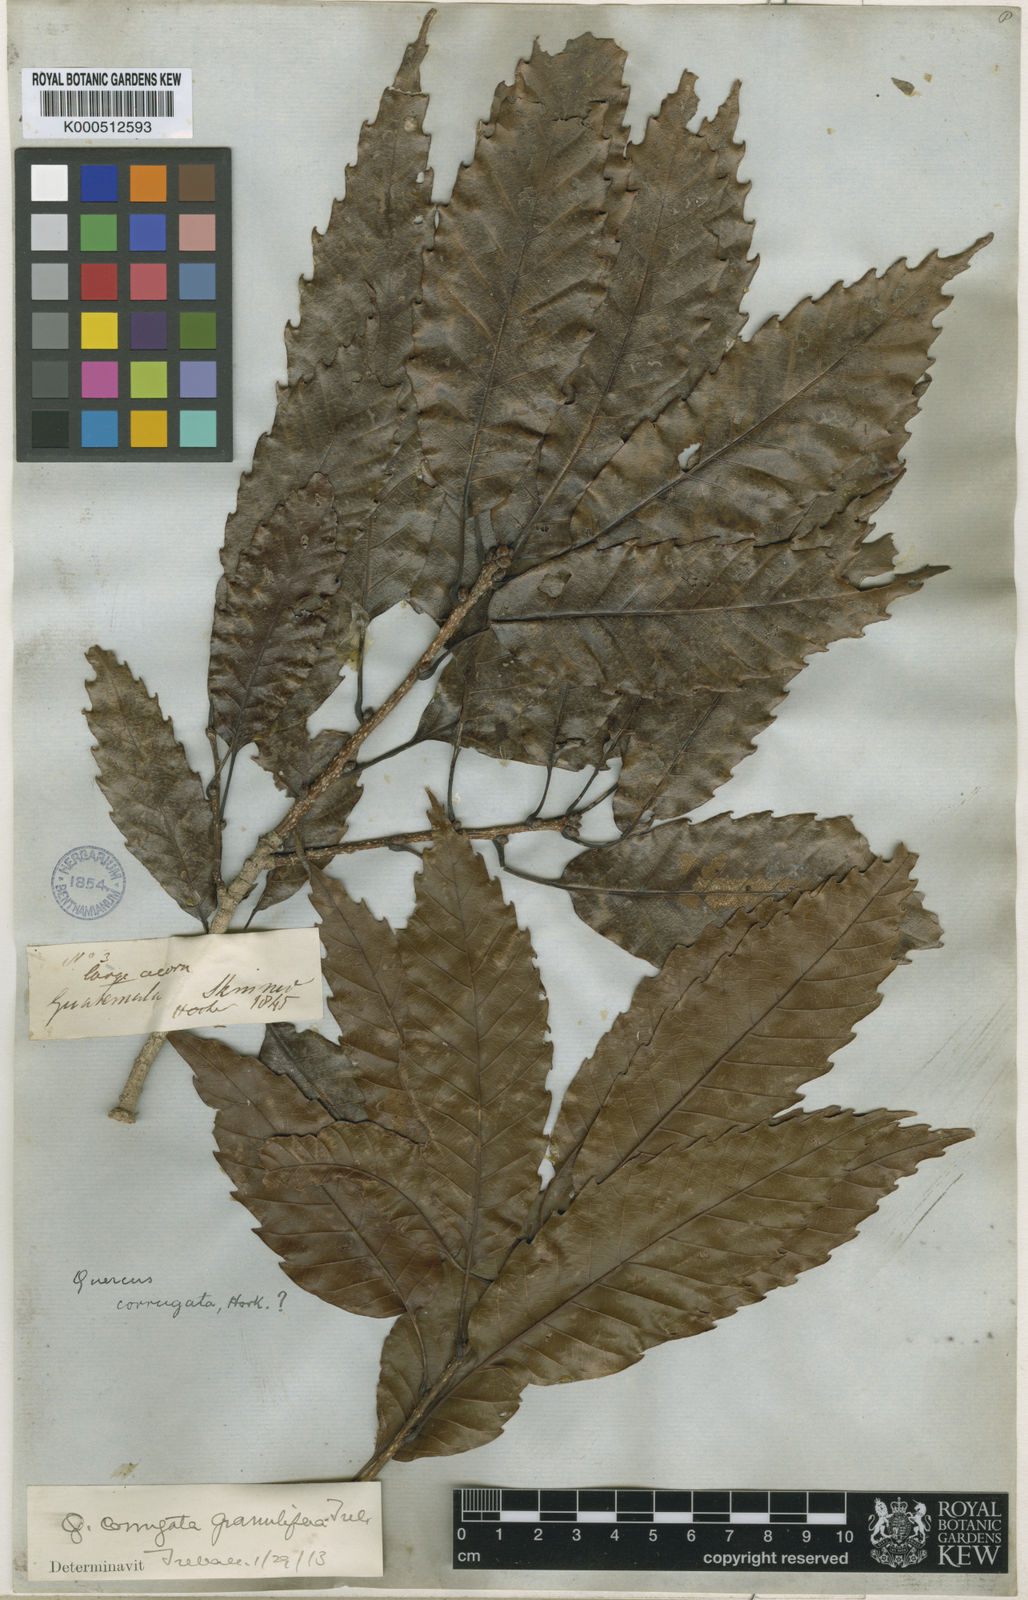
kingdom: Plantae
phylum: Tracheophyta
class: Magnoliopsida
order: Fagales
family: Fagaceae
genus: Quercus
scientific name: Quercus corrugata
